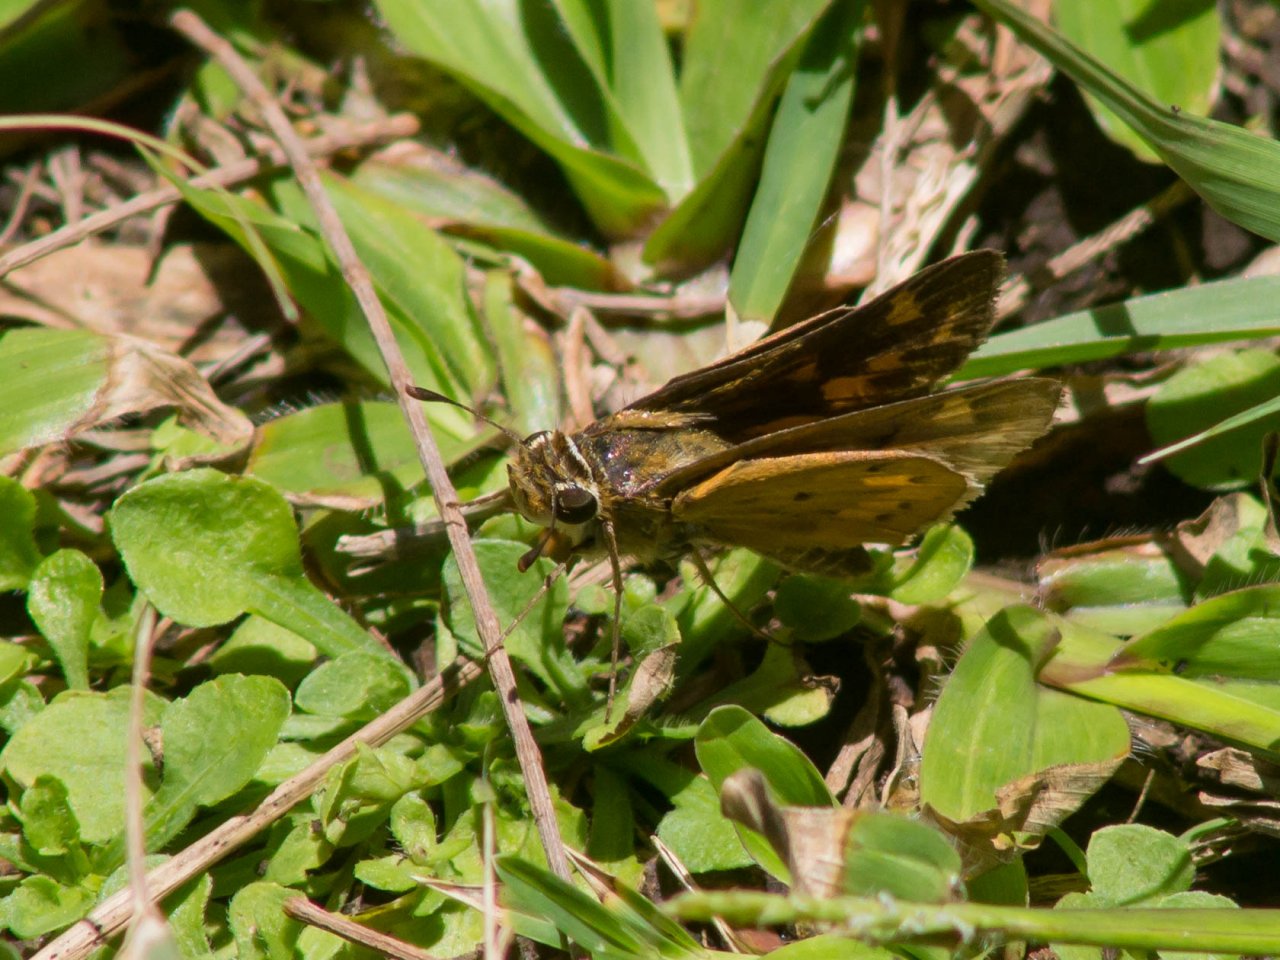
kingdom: Animalia
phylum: Arthropoda
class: Insecta
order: Lepidoptera
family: Hesperiidae
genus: Hylephila
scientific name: Hylephila phyleus
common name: Fiery Skipper
